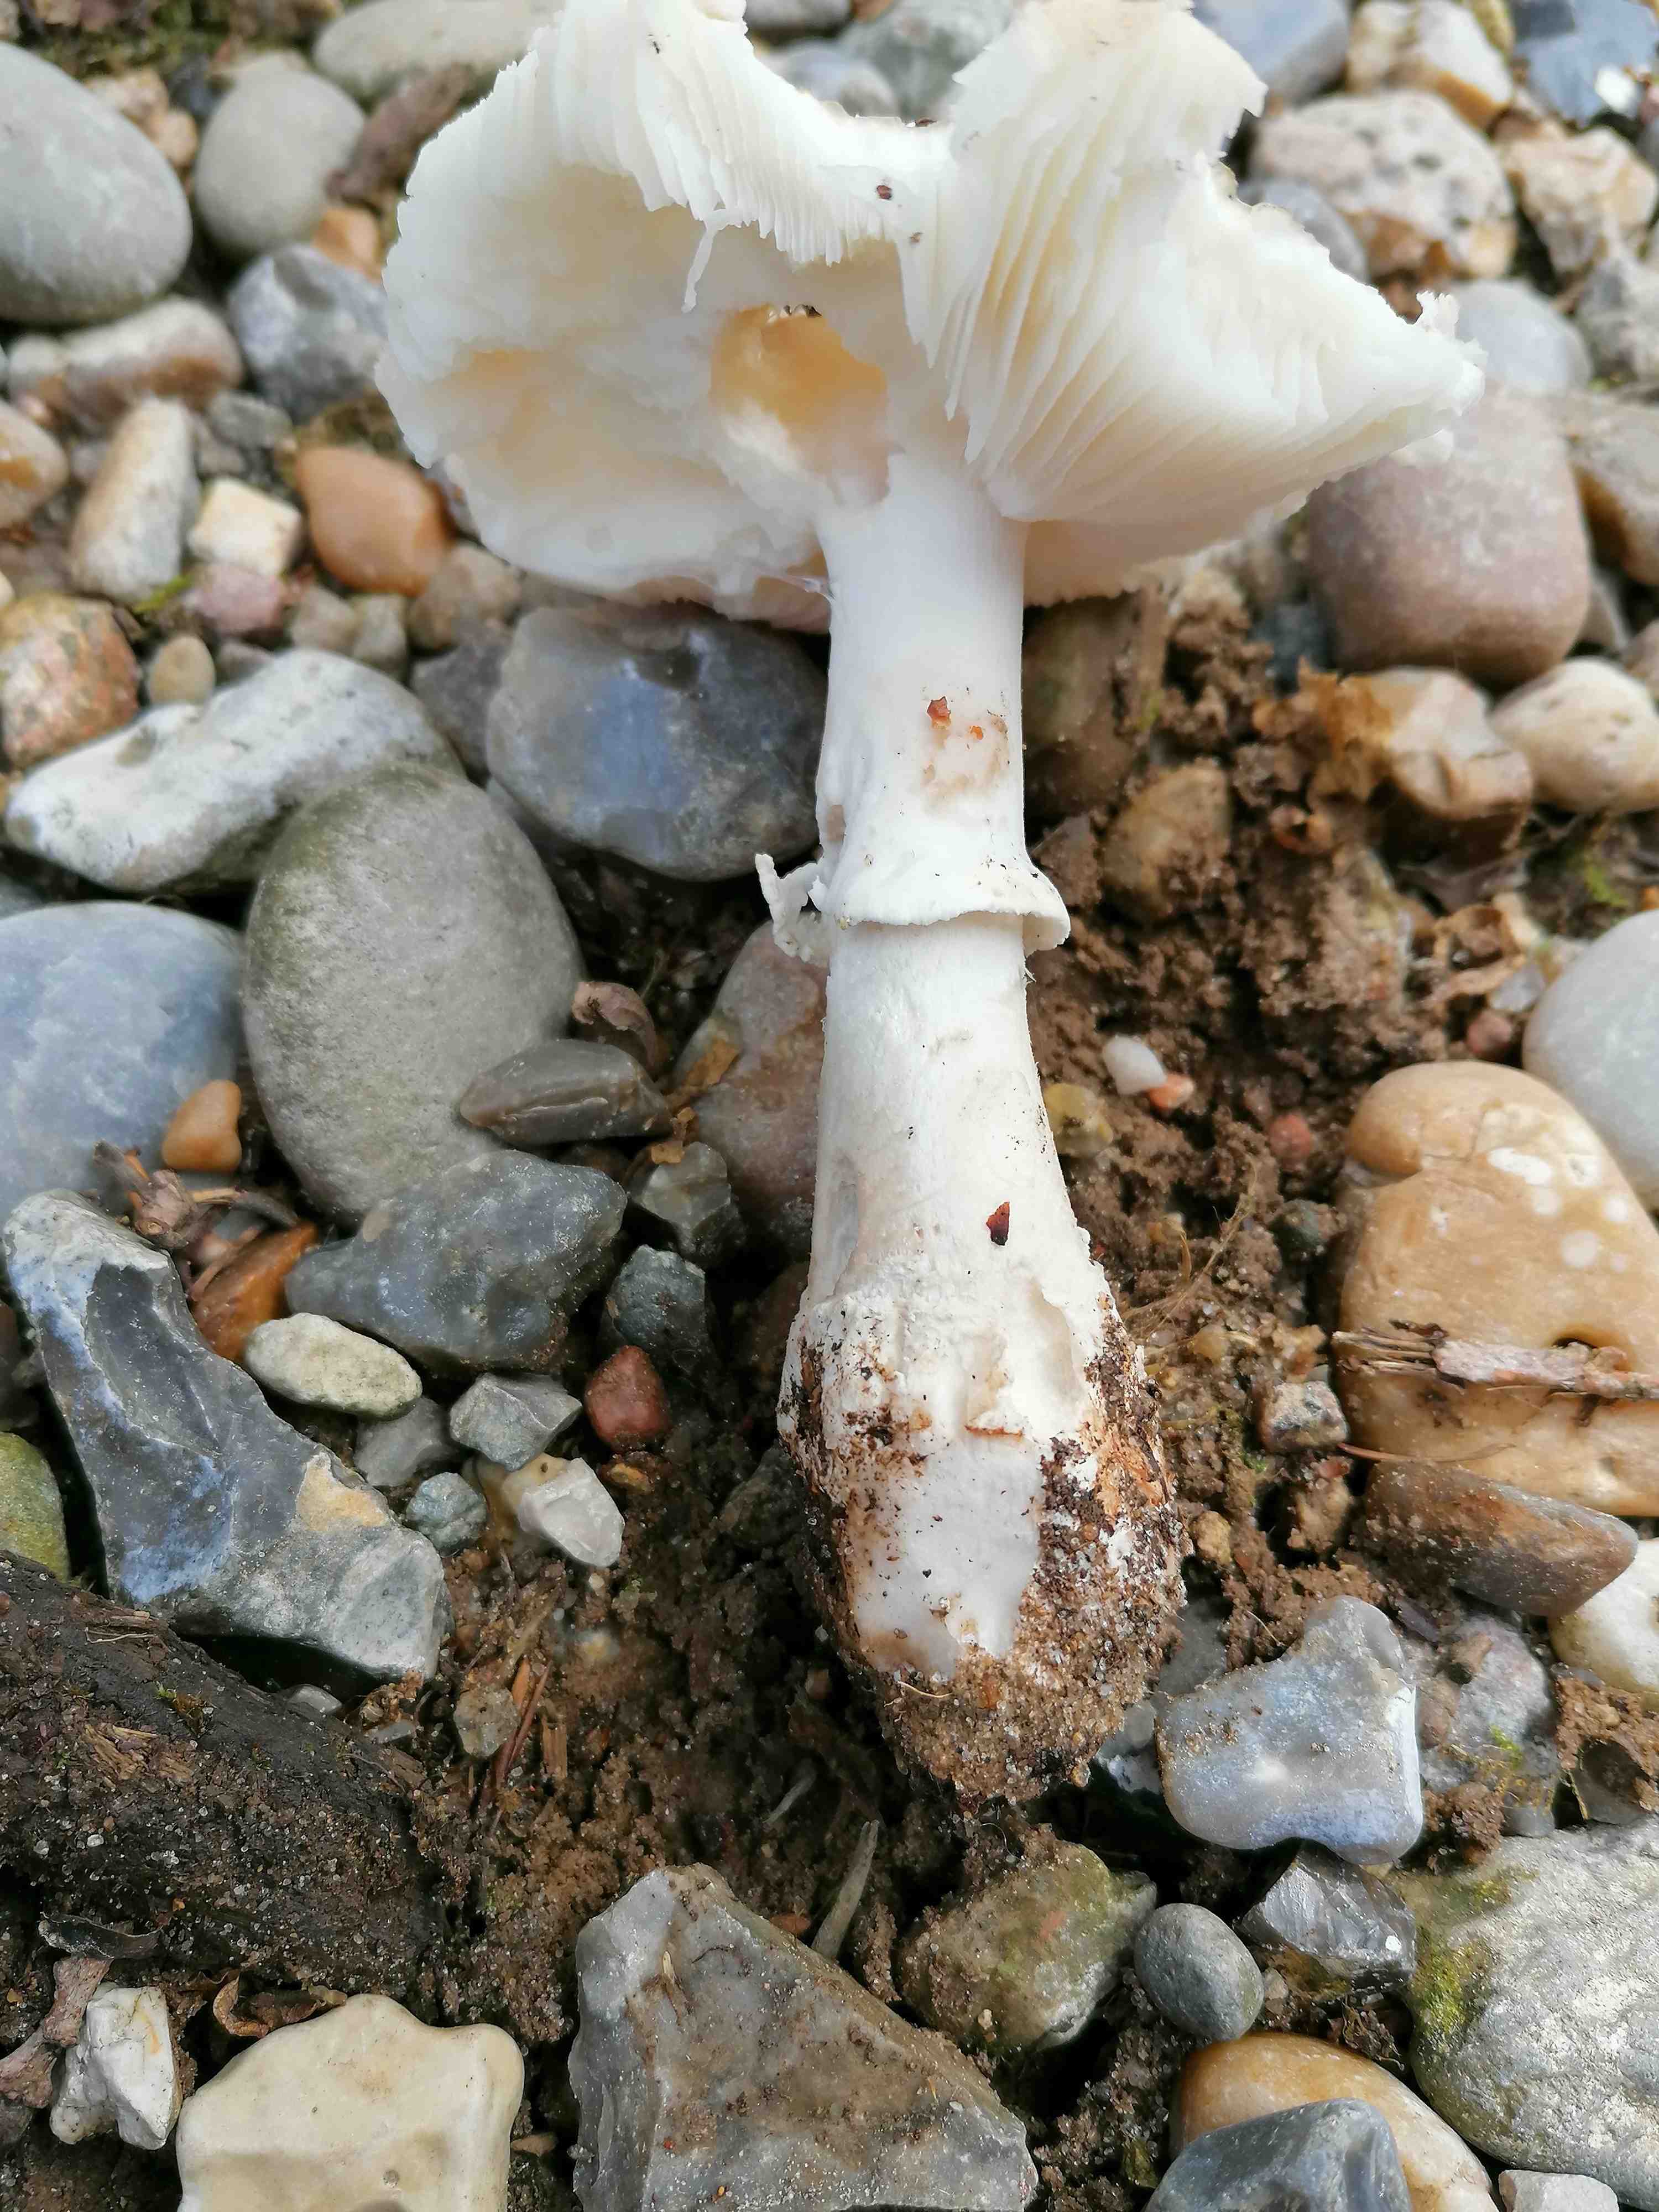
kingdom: Fungi
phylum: Basidiomycota
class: Agaricomycetes
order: Agaricales
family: Amanitaceae
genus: Amanita
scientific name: Amanita
